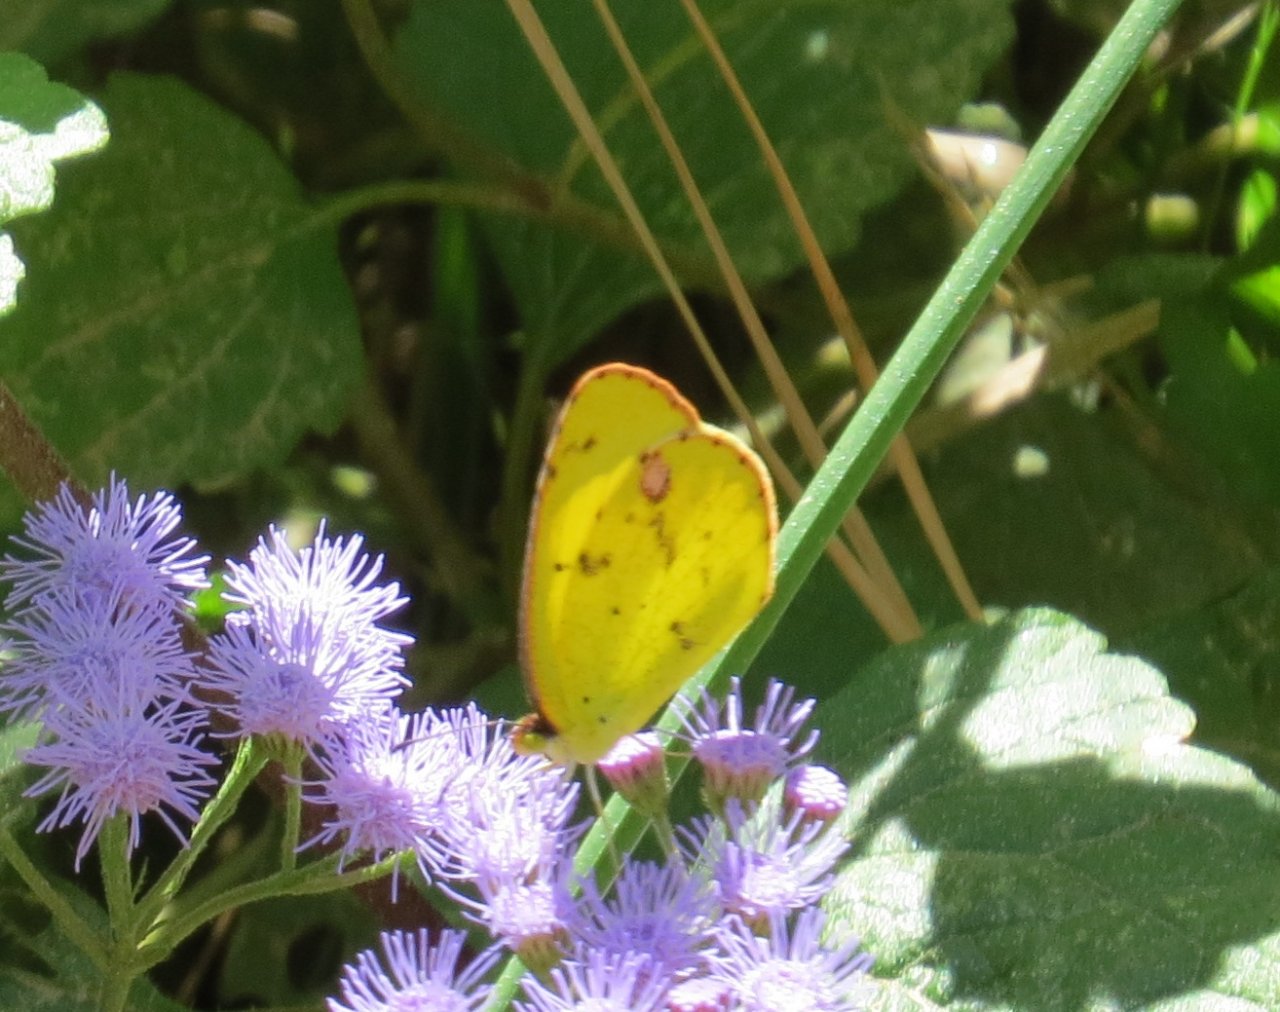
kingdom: Animalia
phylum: Arthropoda
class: Insecta
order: Lepidoptera
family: Pieridae
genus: Pyrisitia
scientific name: Pyrisitia lisa
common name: Little Yellow
